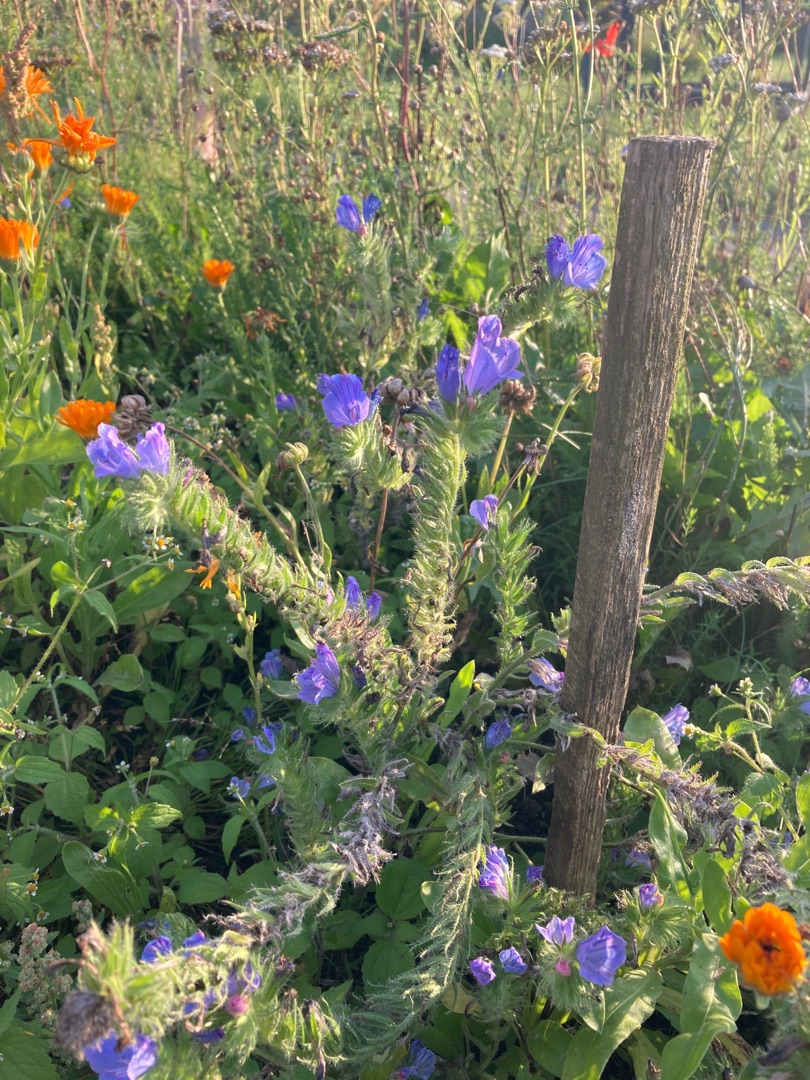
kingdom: Plantae
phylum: Tracheophyta
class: Magnoliopsida
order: Boraginales
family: Boraginaceae
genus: Echium
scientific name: Echium plantagineum
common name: Vejbred-slangehoved
